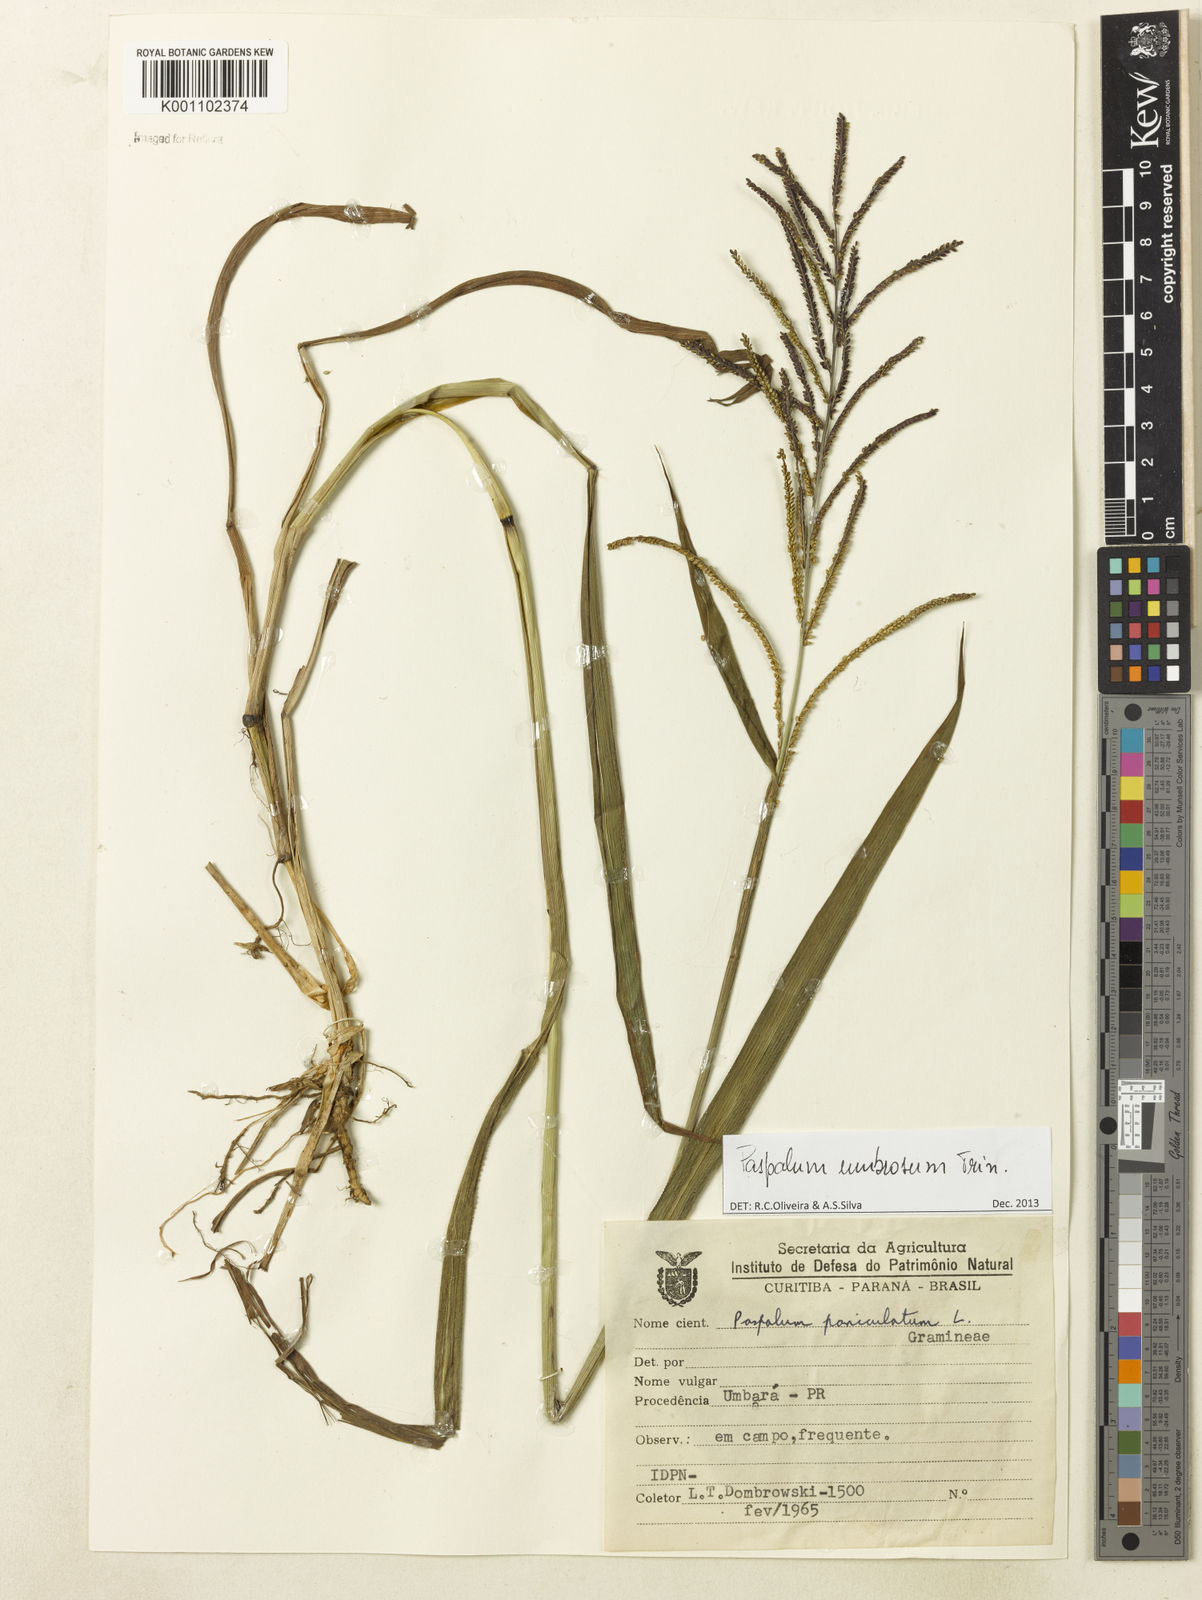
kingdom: Plantae
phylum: Tracheophyta
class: Liliopsida
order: Poales
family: Poaceae
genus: Paspalum
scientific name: Paspalum umbrosum
